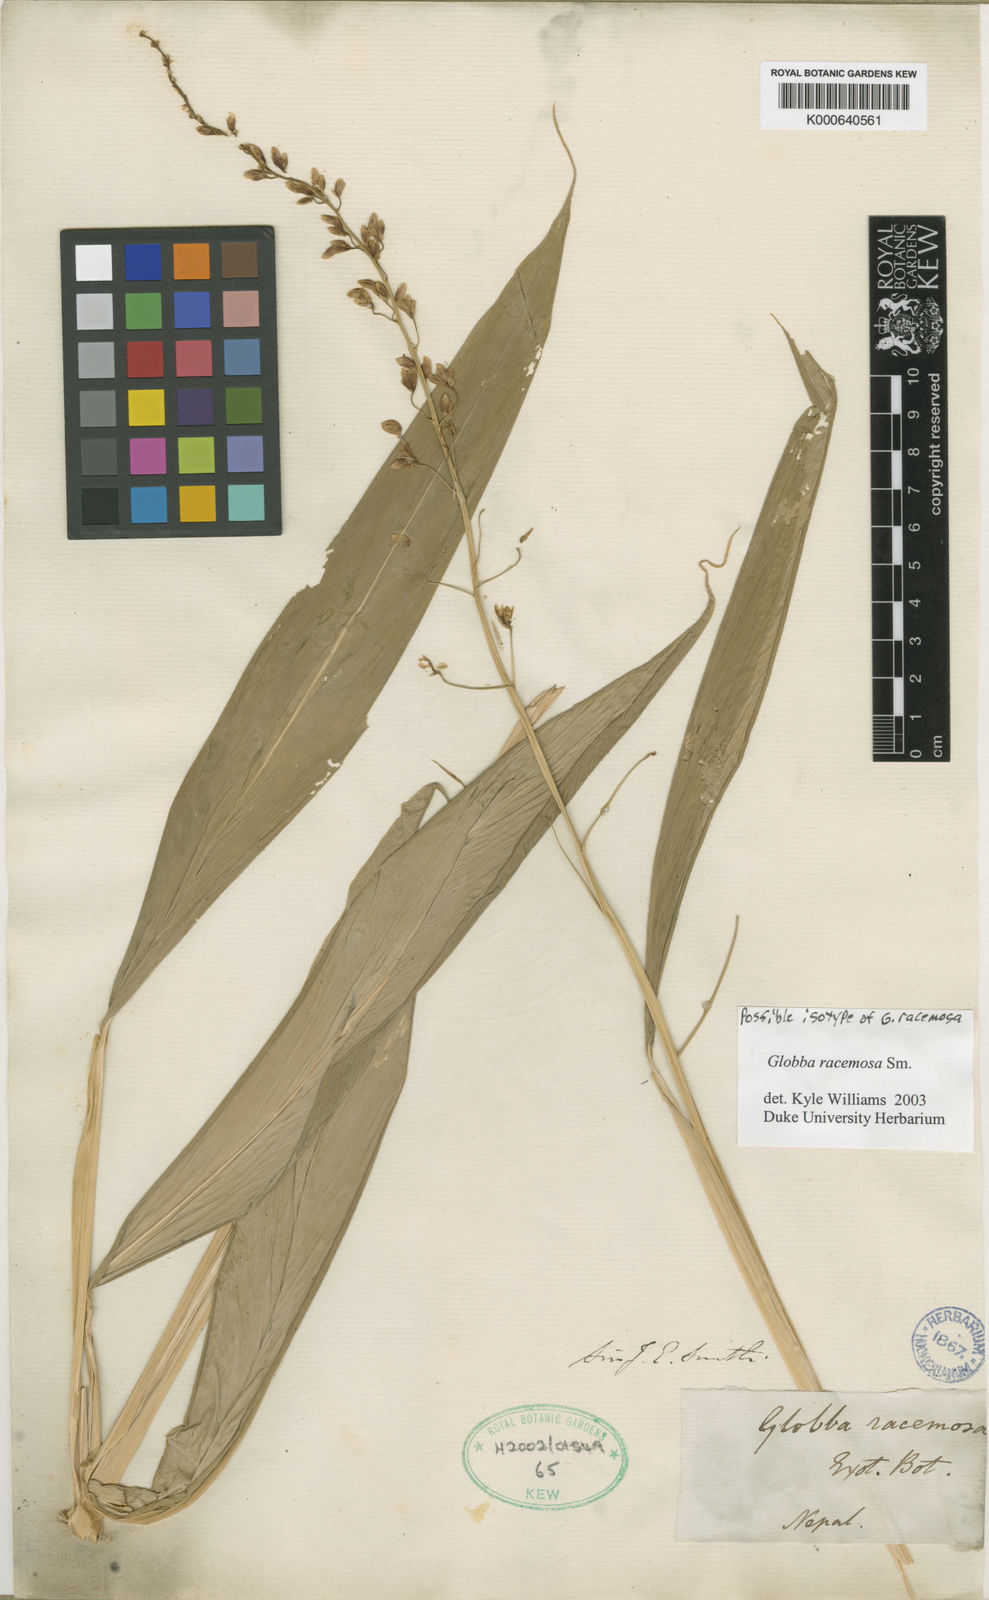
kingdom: Plantae
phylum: Tracheophyta
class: Liliopsida
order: Zingiberales
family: Zingiberaceae
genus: Globba
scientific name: Globba racemosa
